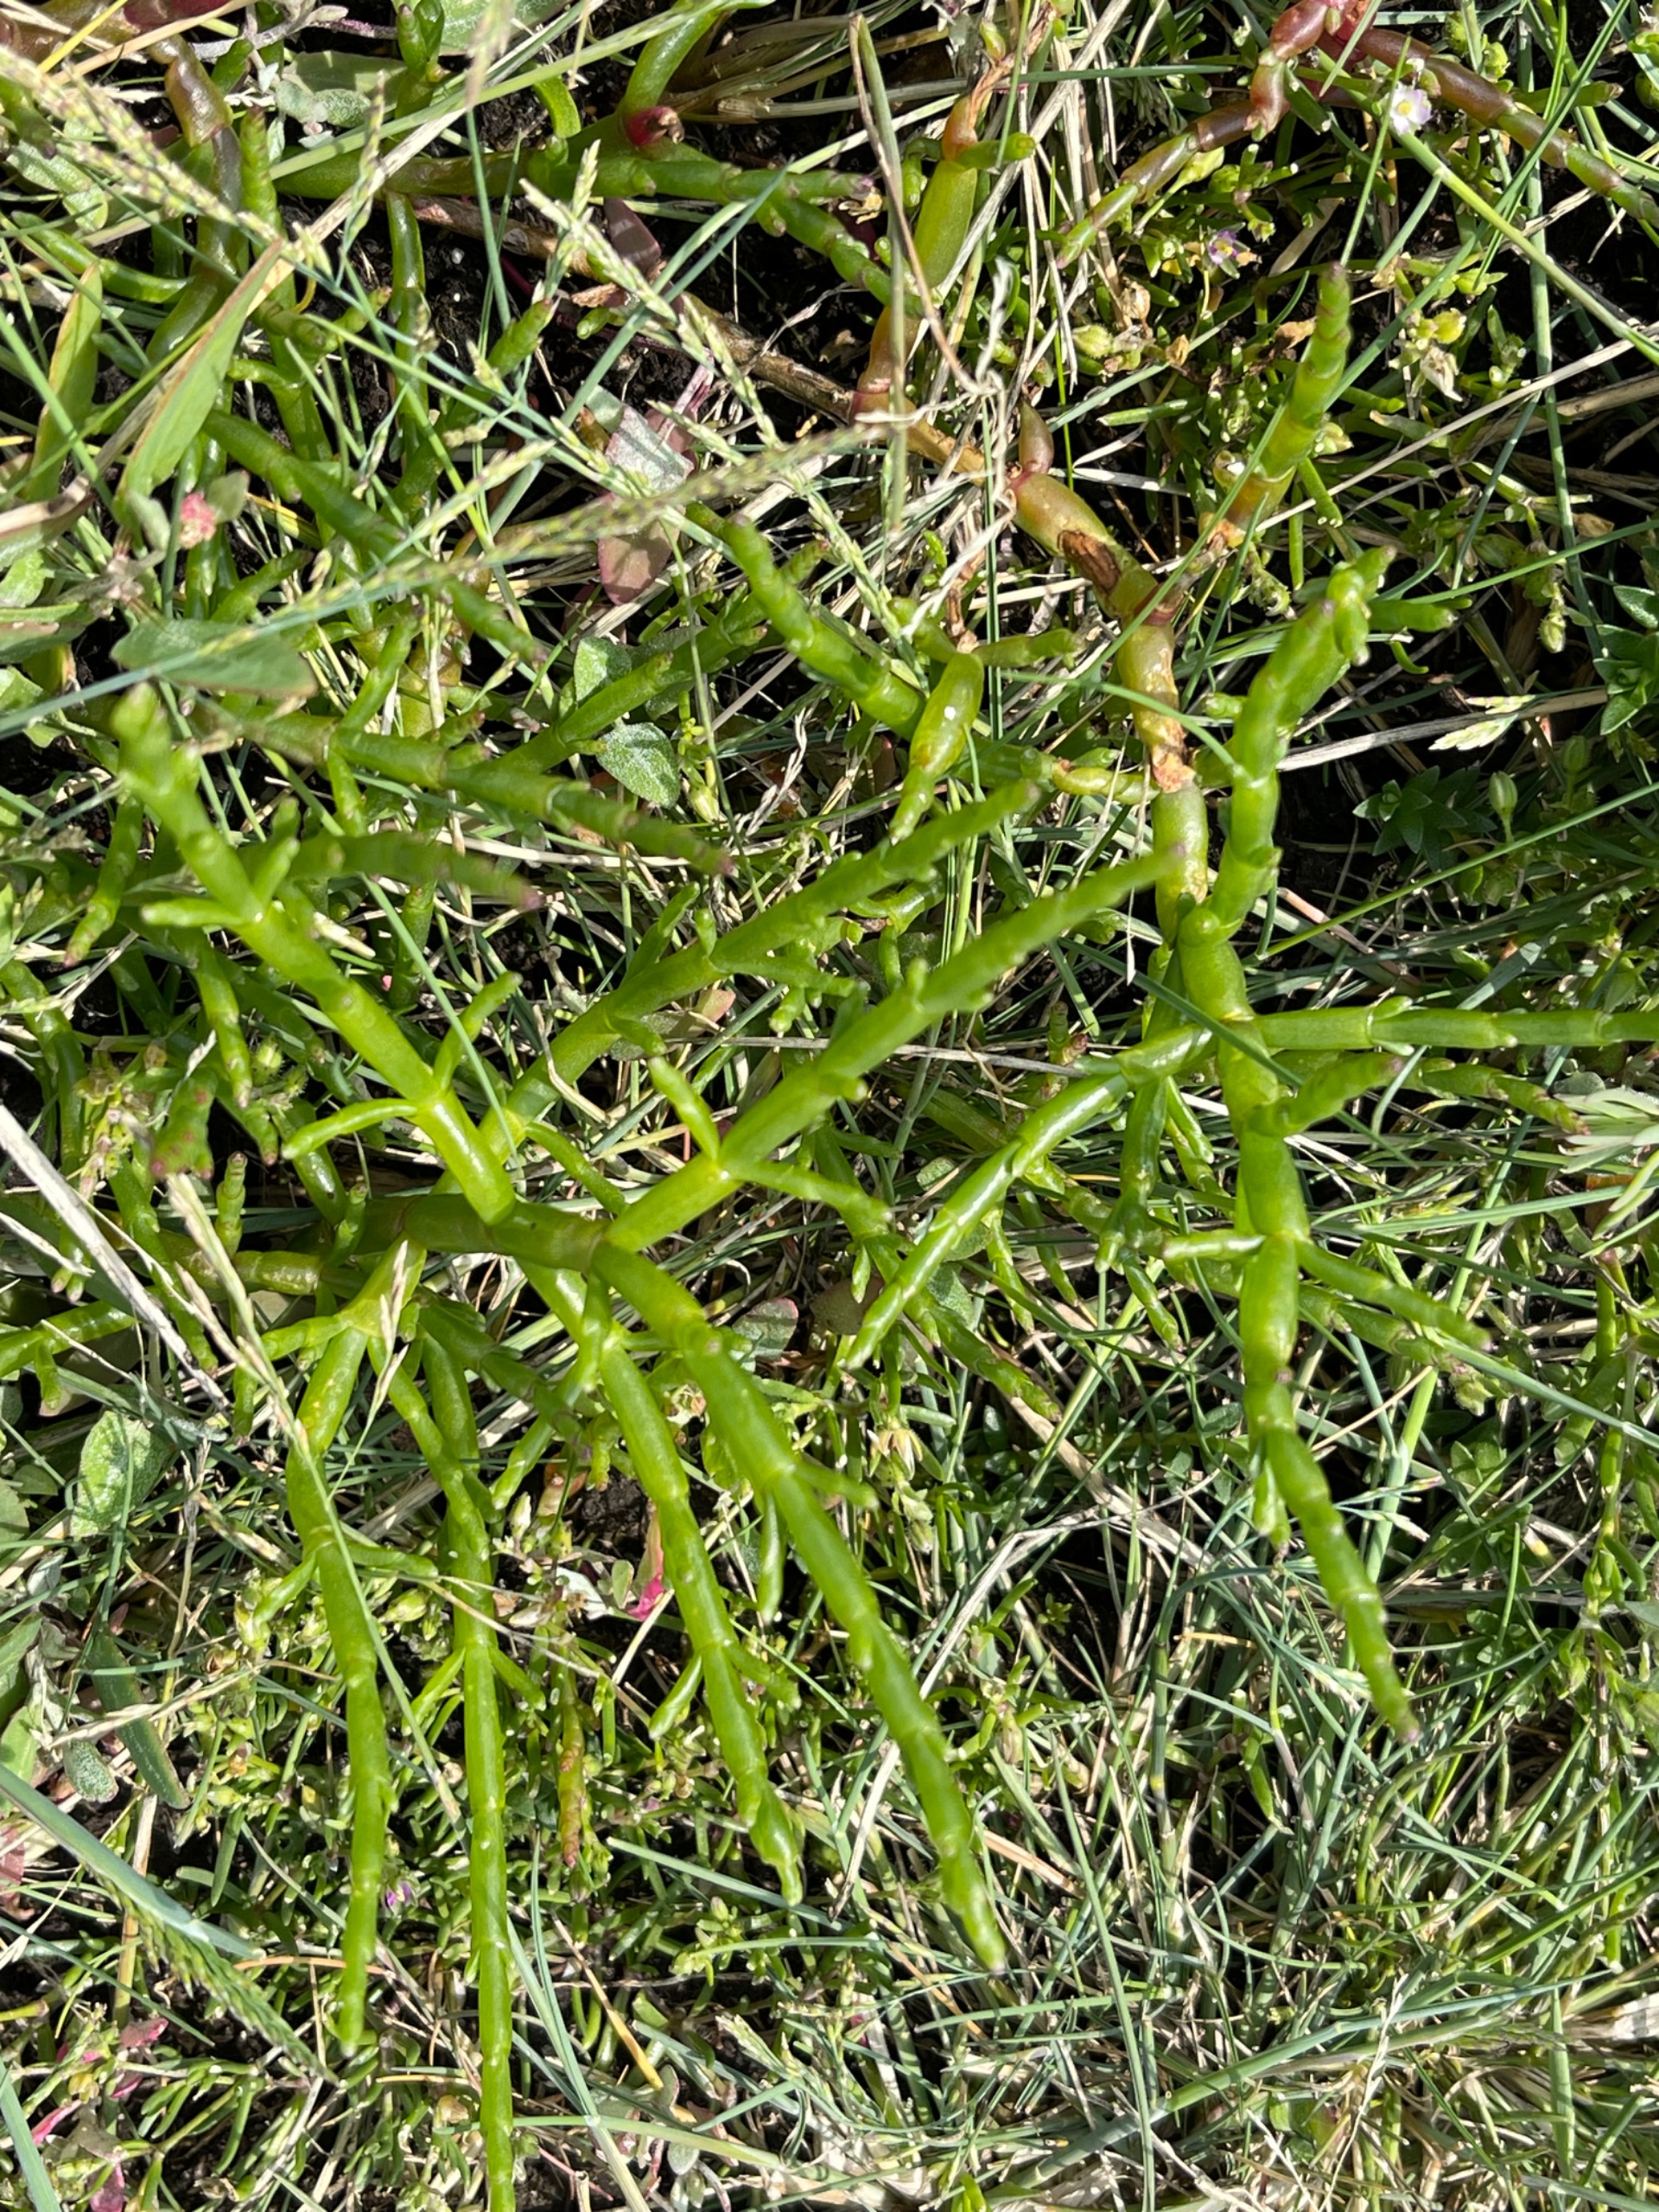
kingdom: Plantae
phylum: Tracheophyta
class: Magnoliopsida
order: Caryophyllales
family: Amaranthaceae
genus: Salicornia
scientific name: Salicornia europaea
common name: Almindelig salturt
